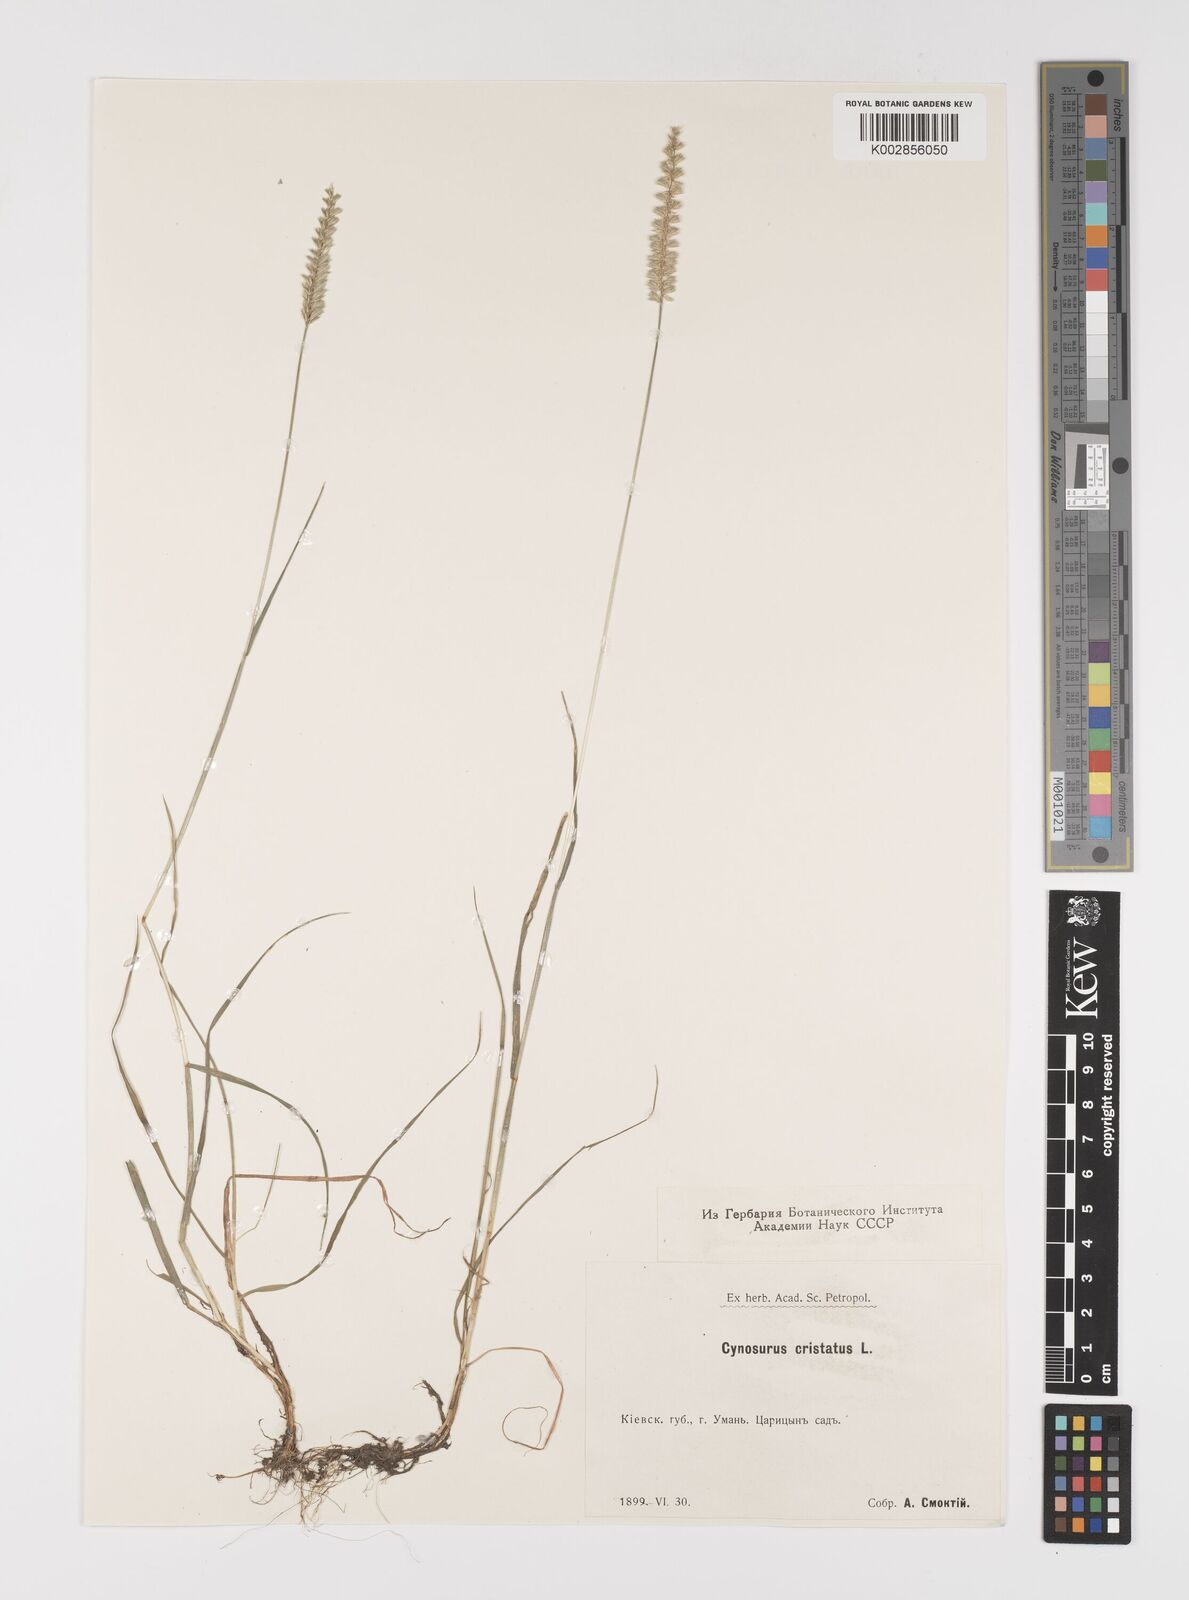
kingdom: Plantae
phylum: Tracheophyta
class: Liliopsida
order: Poales
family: Poaceae
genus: Cynosurus
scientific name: Cynosurus cristatus
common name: Crested dog's-tail
